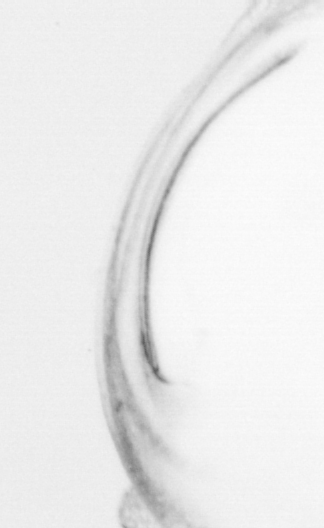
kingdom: Animalia
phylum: Chordata
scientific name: Chordata
